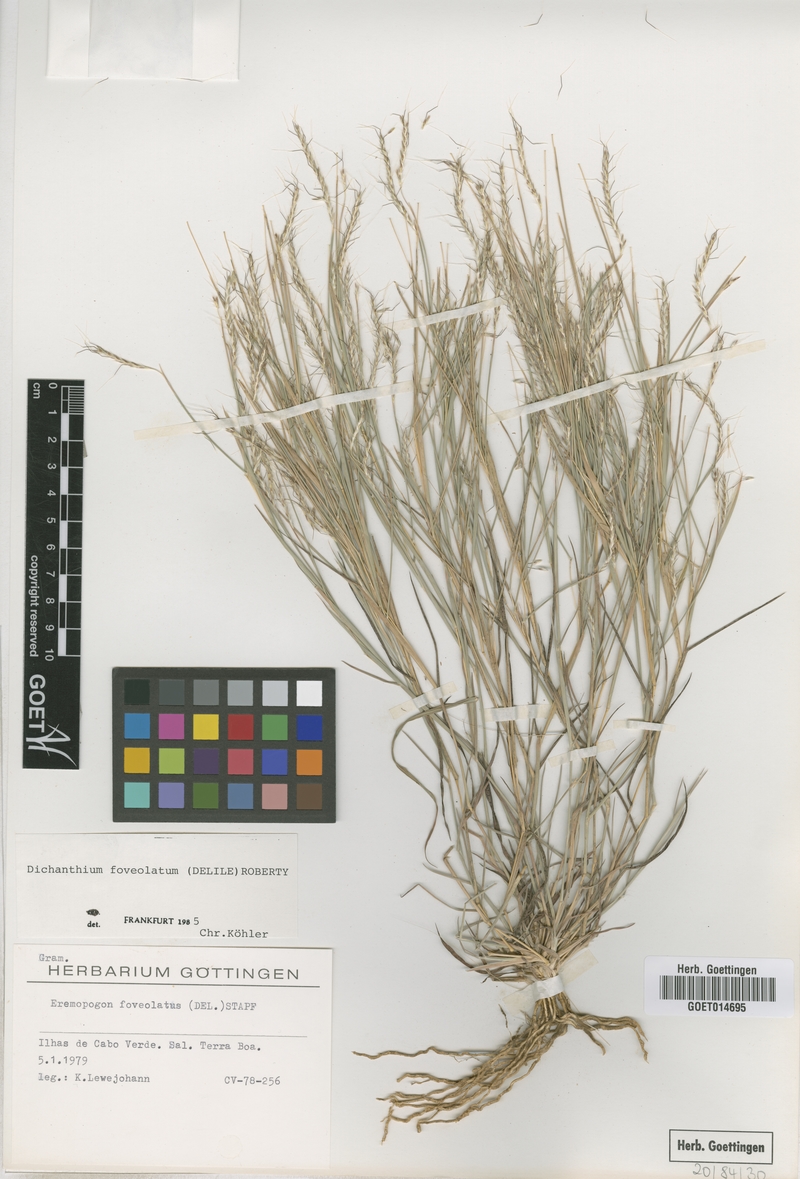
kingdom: Plantae
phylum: Tracheophyta
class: Liliopsida
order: Poales
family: Poaceae
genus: Dichanthium
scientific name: Dichanthium foveolatum
